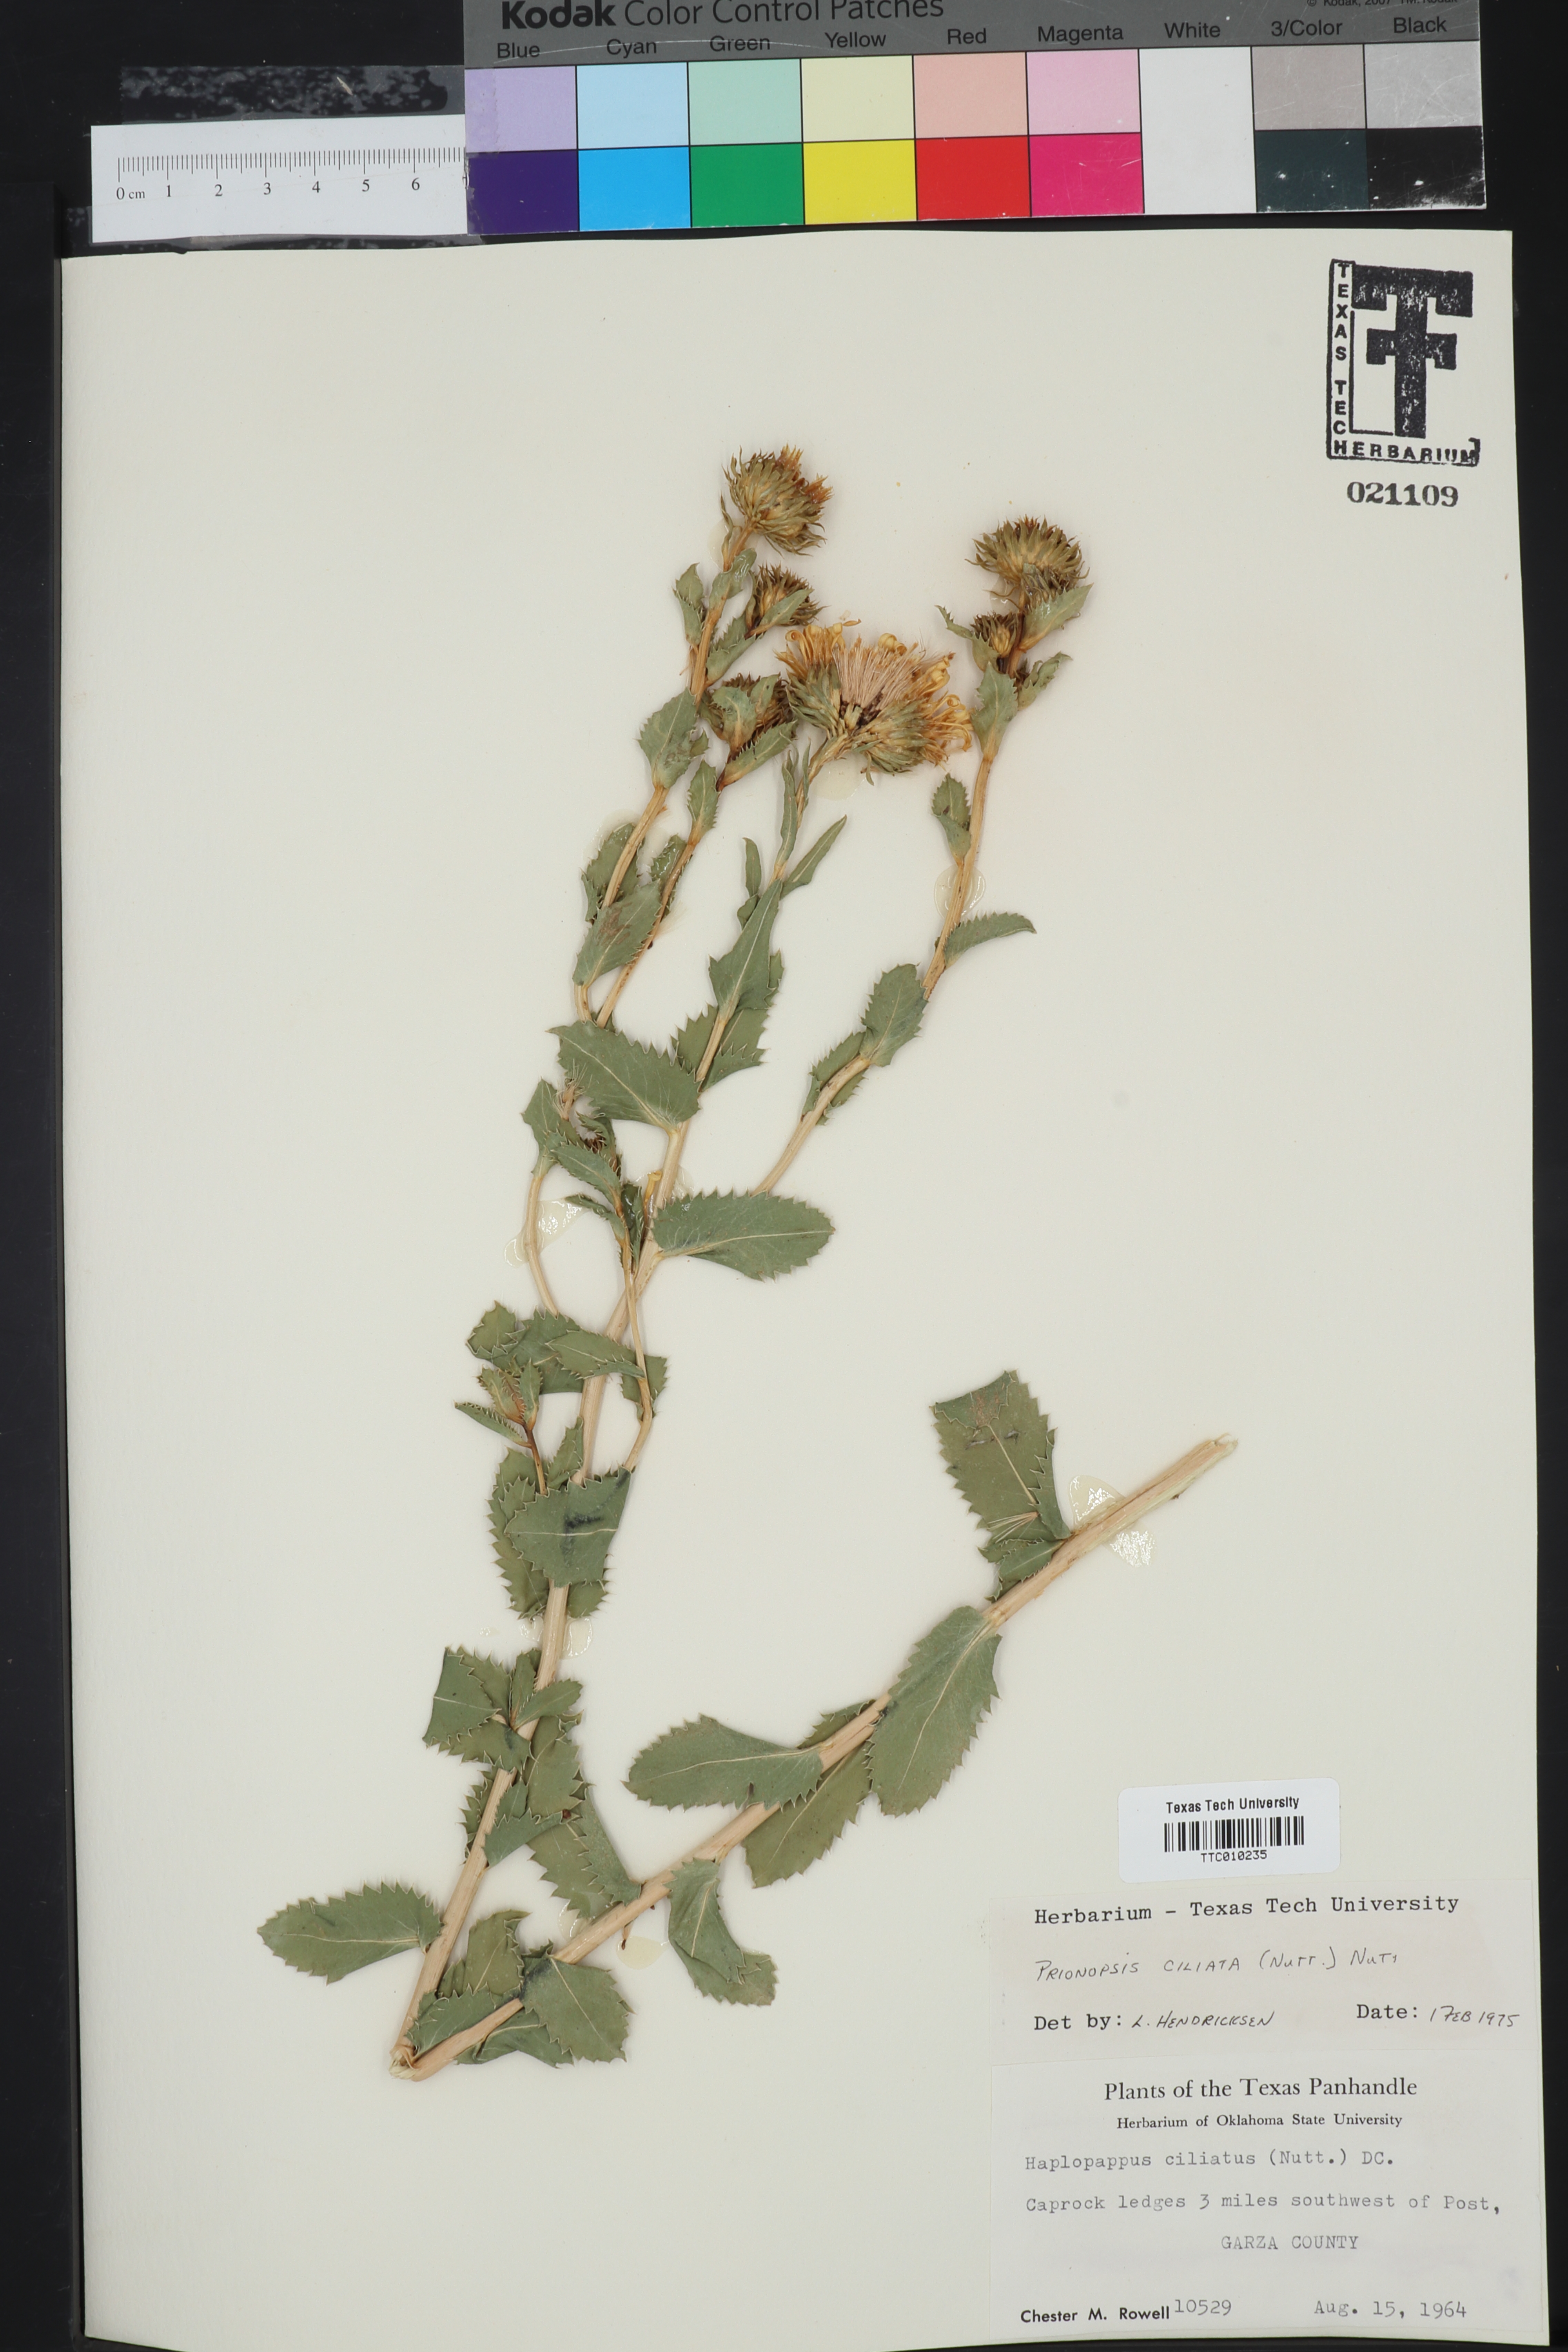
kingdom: Plantae
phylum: Tracheophyta
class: Magnoliopsida
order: Asterales
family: Asteraceae
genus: Grindelia
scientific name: Grindelia ciliata
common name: Goldenweed
